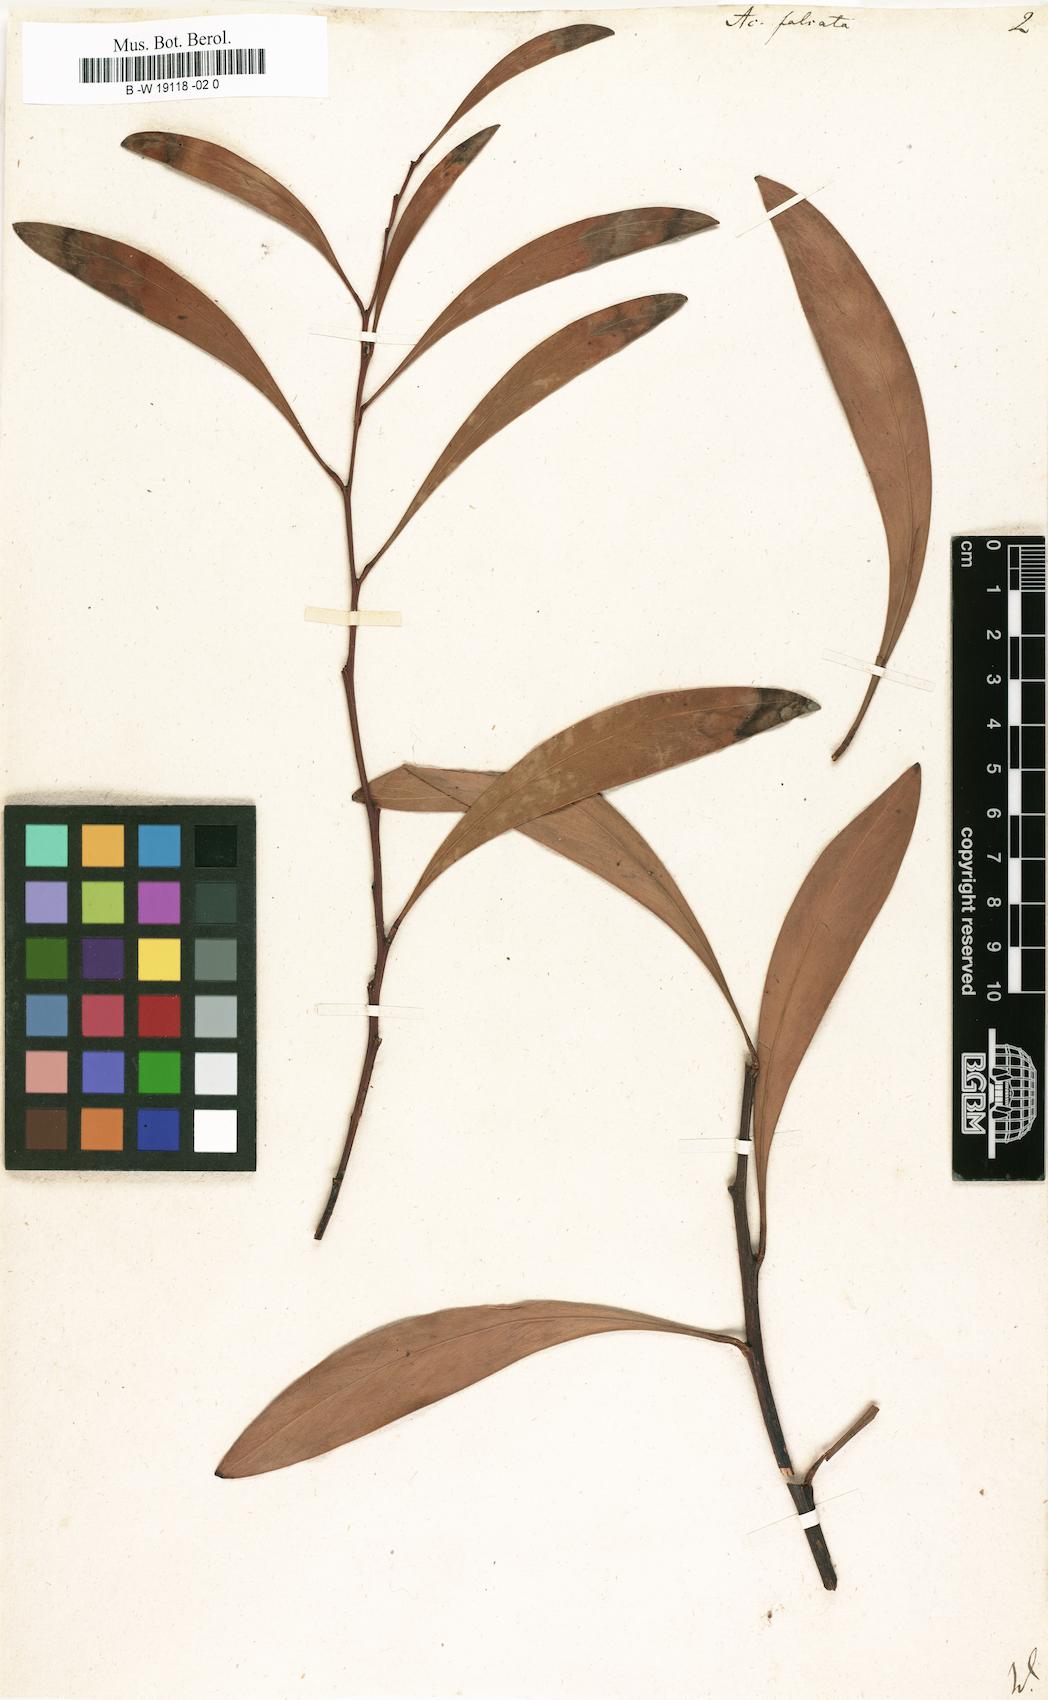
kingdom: Plantae
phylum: Tracheophyta
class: Magnoliopsida
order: Fabales
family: Fabaceae
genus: Acacia
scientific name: Acacia falcata
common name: Burra acacia
